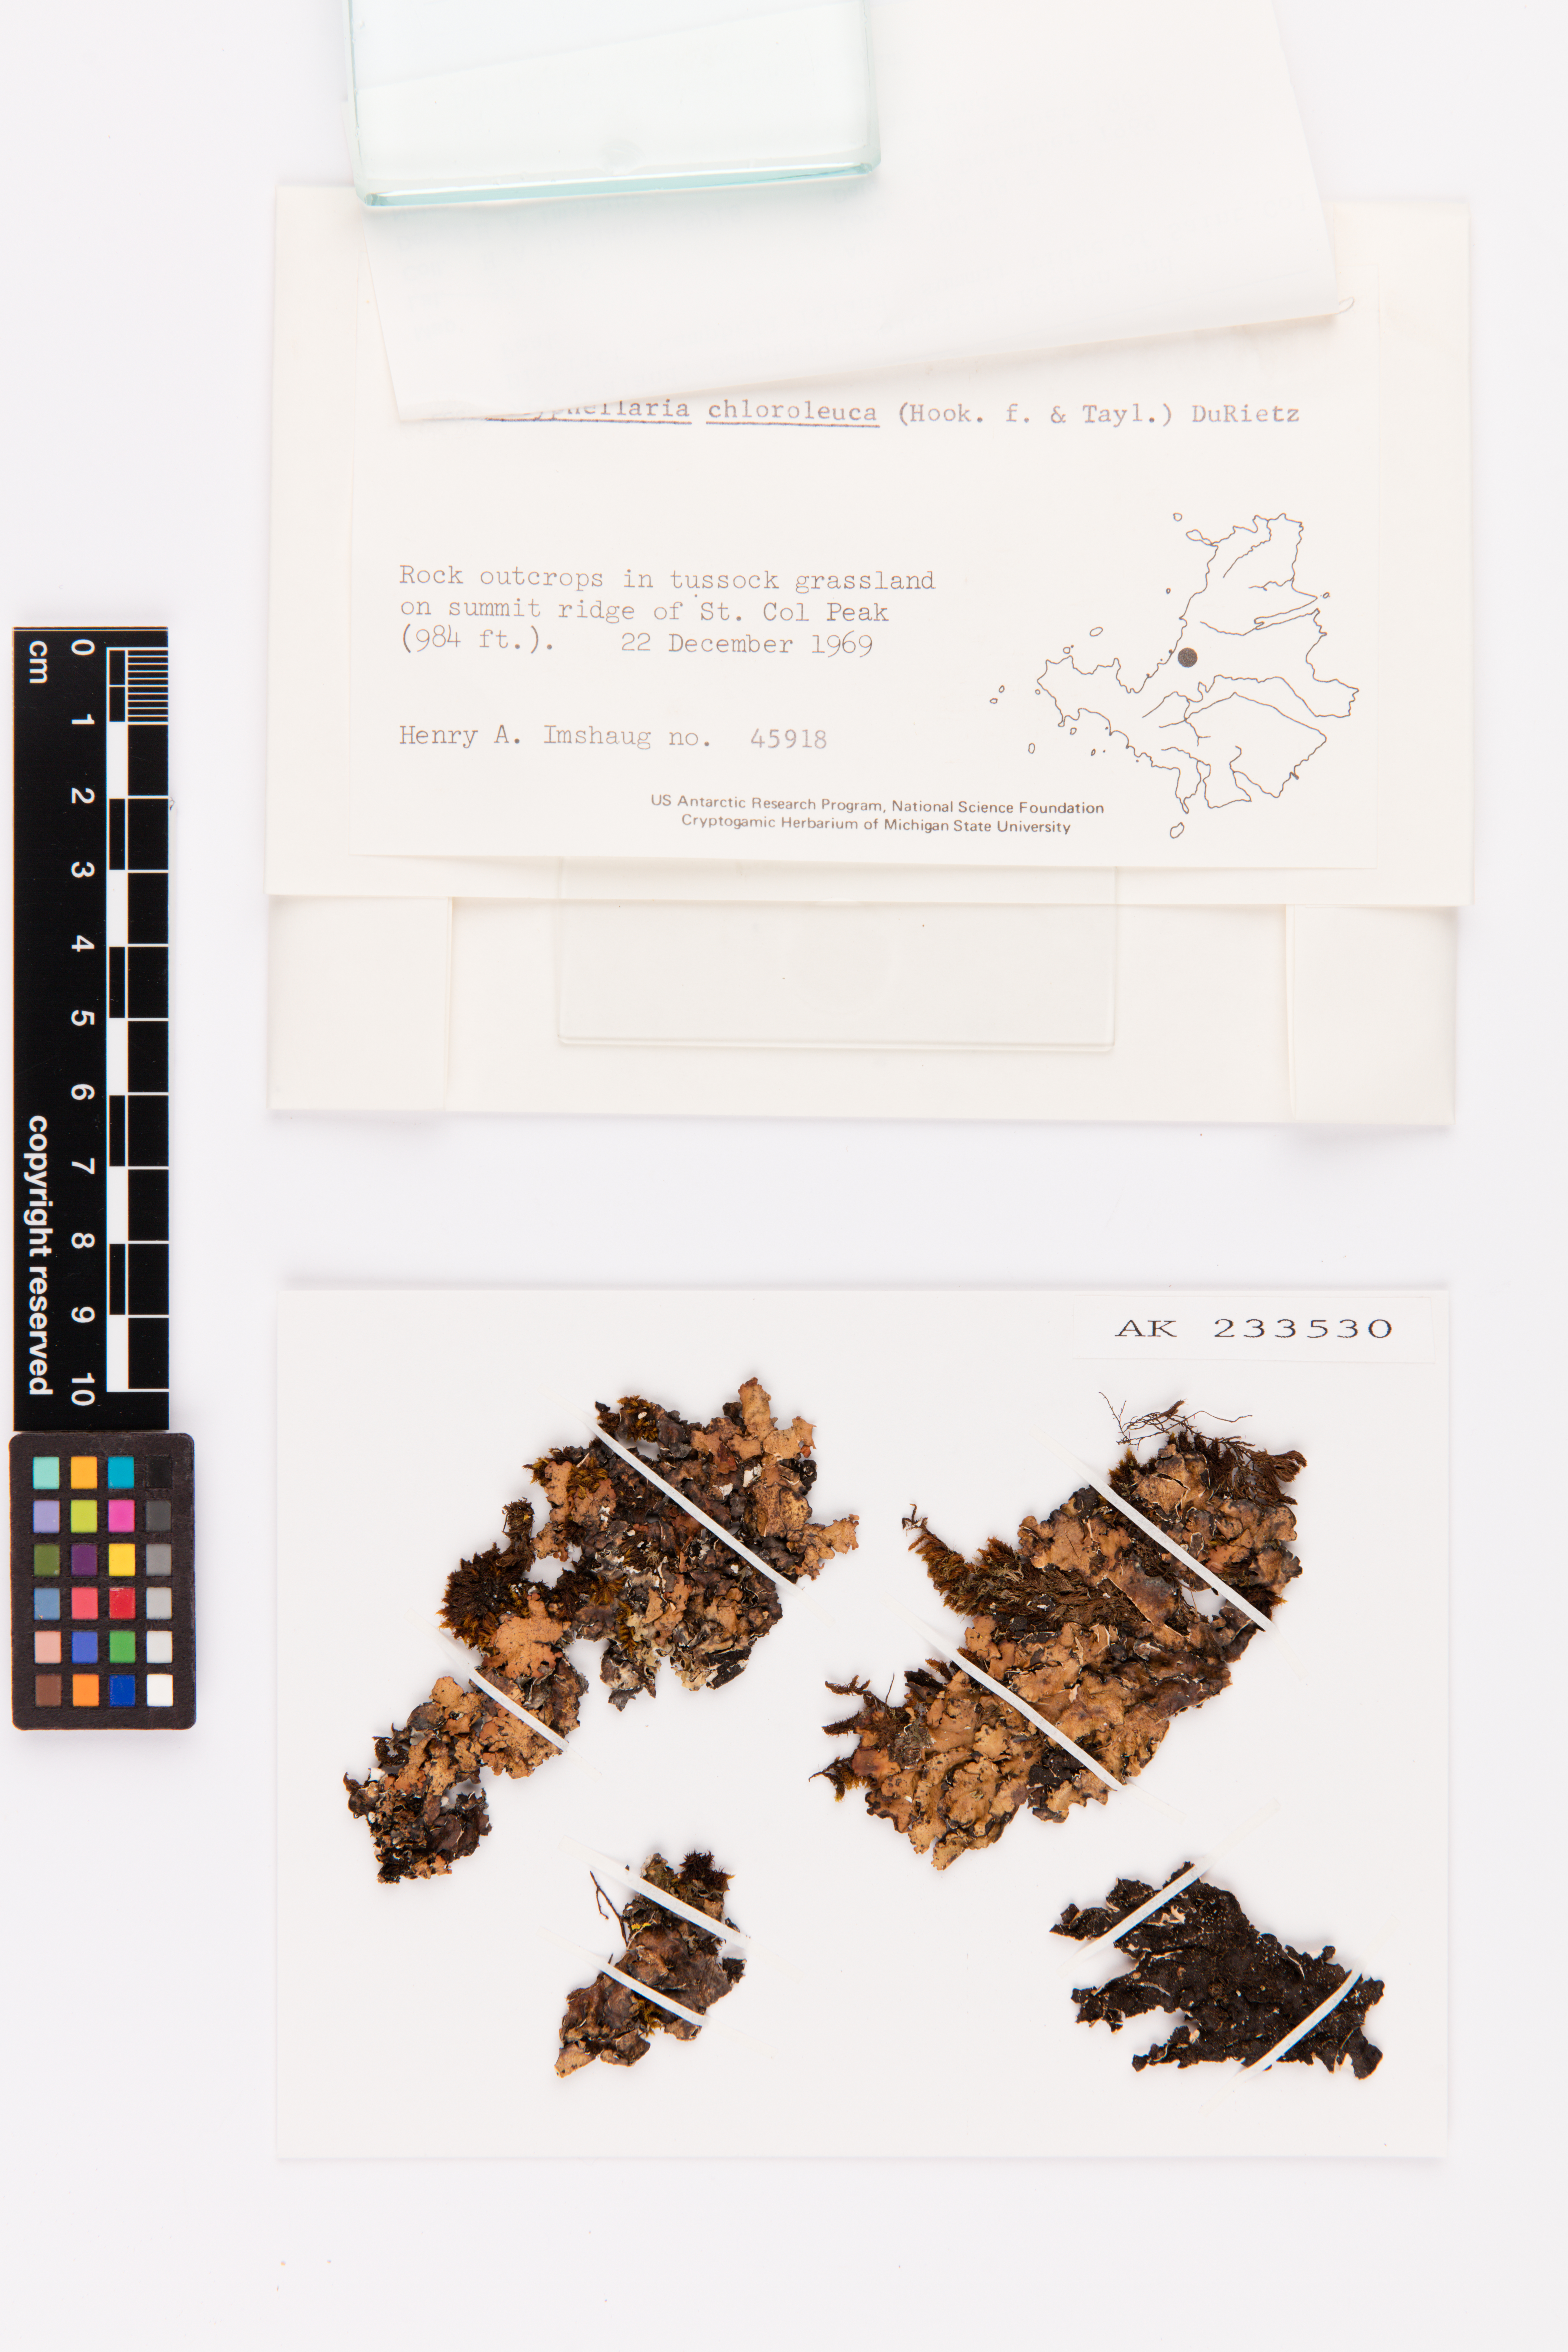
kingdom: Fungi
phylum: Ascomycota
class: Lecanoromycetes
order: Peltigerales
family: Lobariaceae
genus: Pseudocyphellaria
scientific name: Pseudocyphellaria chloroleuca
